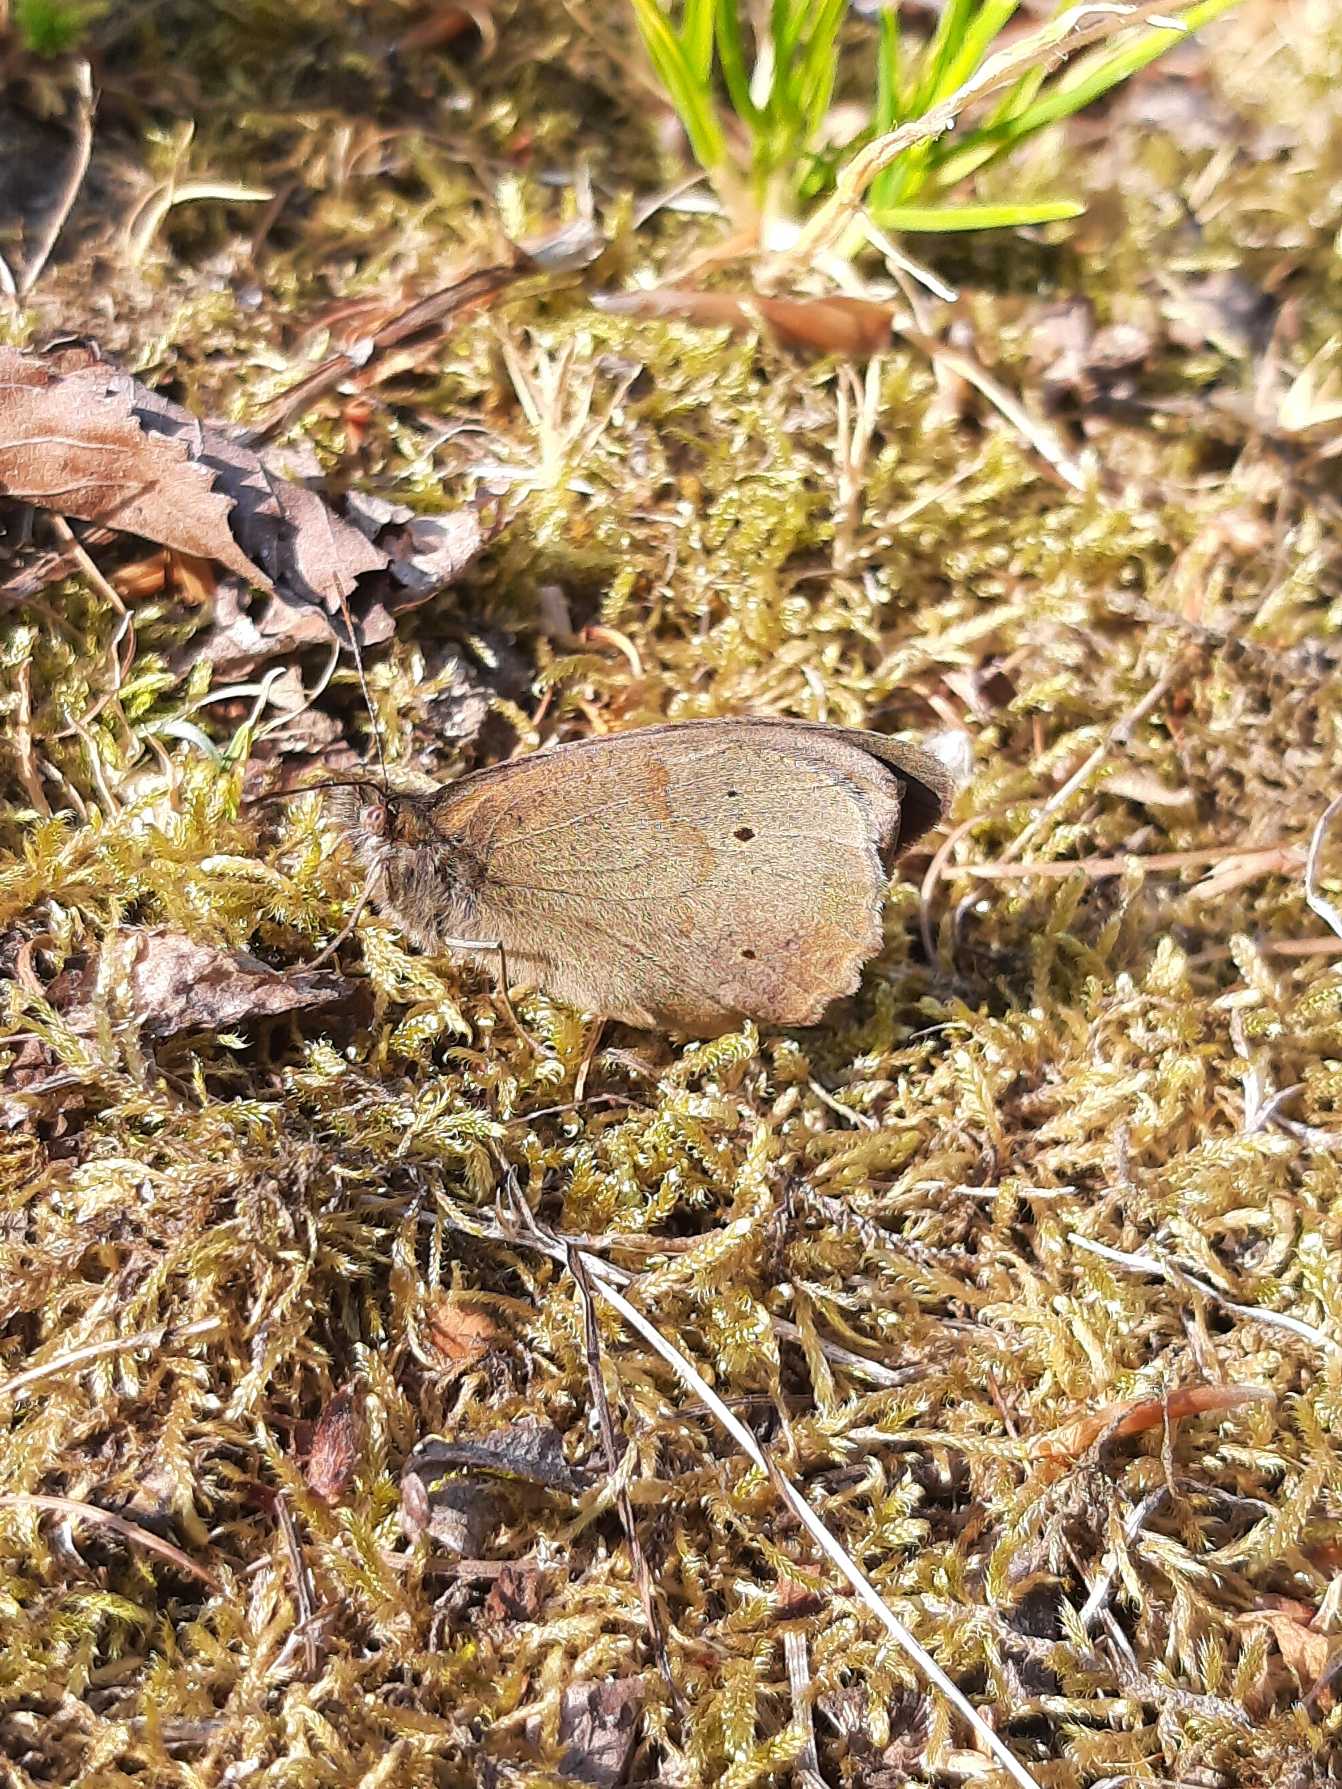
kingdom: Animalia
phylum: Arthropoda
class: Insecta
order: Lepidoptera
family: Nymphalidae
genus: Maniola
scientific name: Maniola jurtina
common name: Græsrandøje
